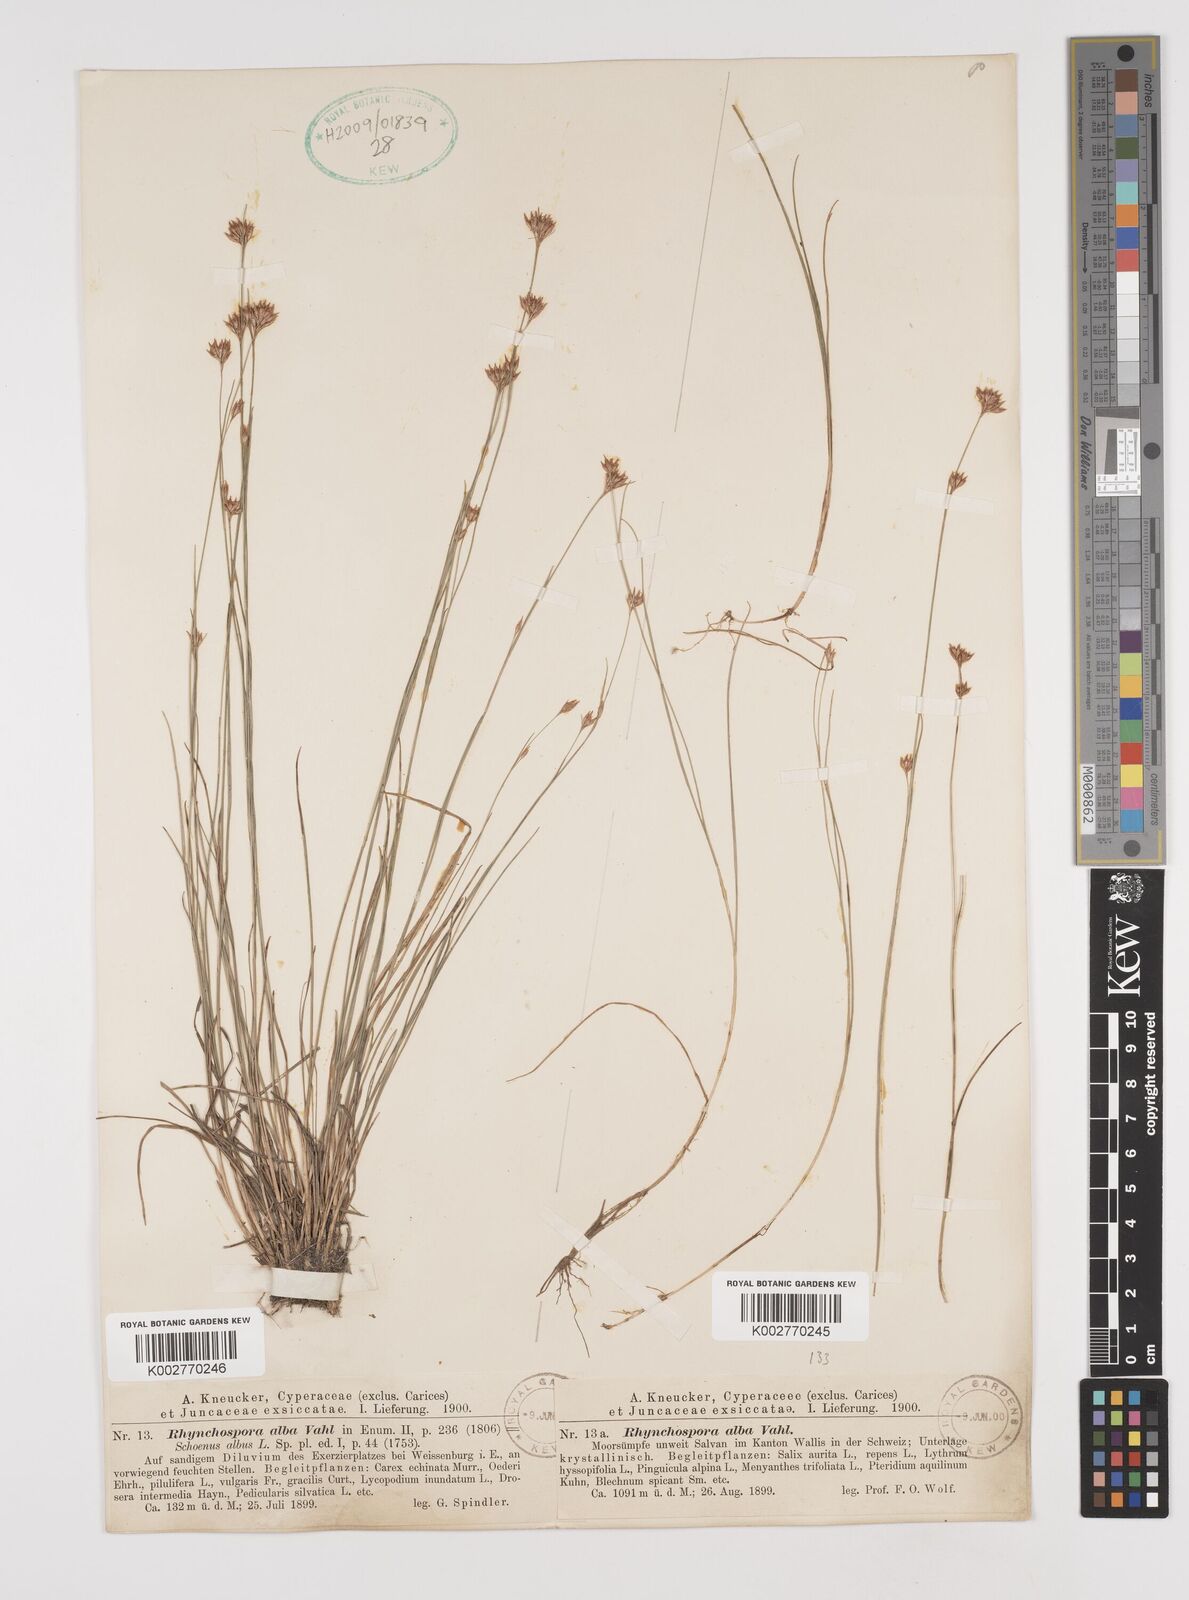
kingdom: Plantae
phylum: Tracheophyta
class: Liliopsida
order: Poales
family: Cyperaceae
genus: Rhynchospora
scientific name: Rhynchospora alba
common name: White beak-sedge
